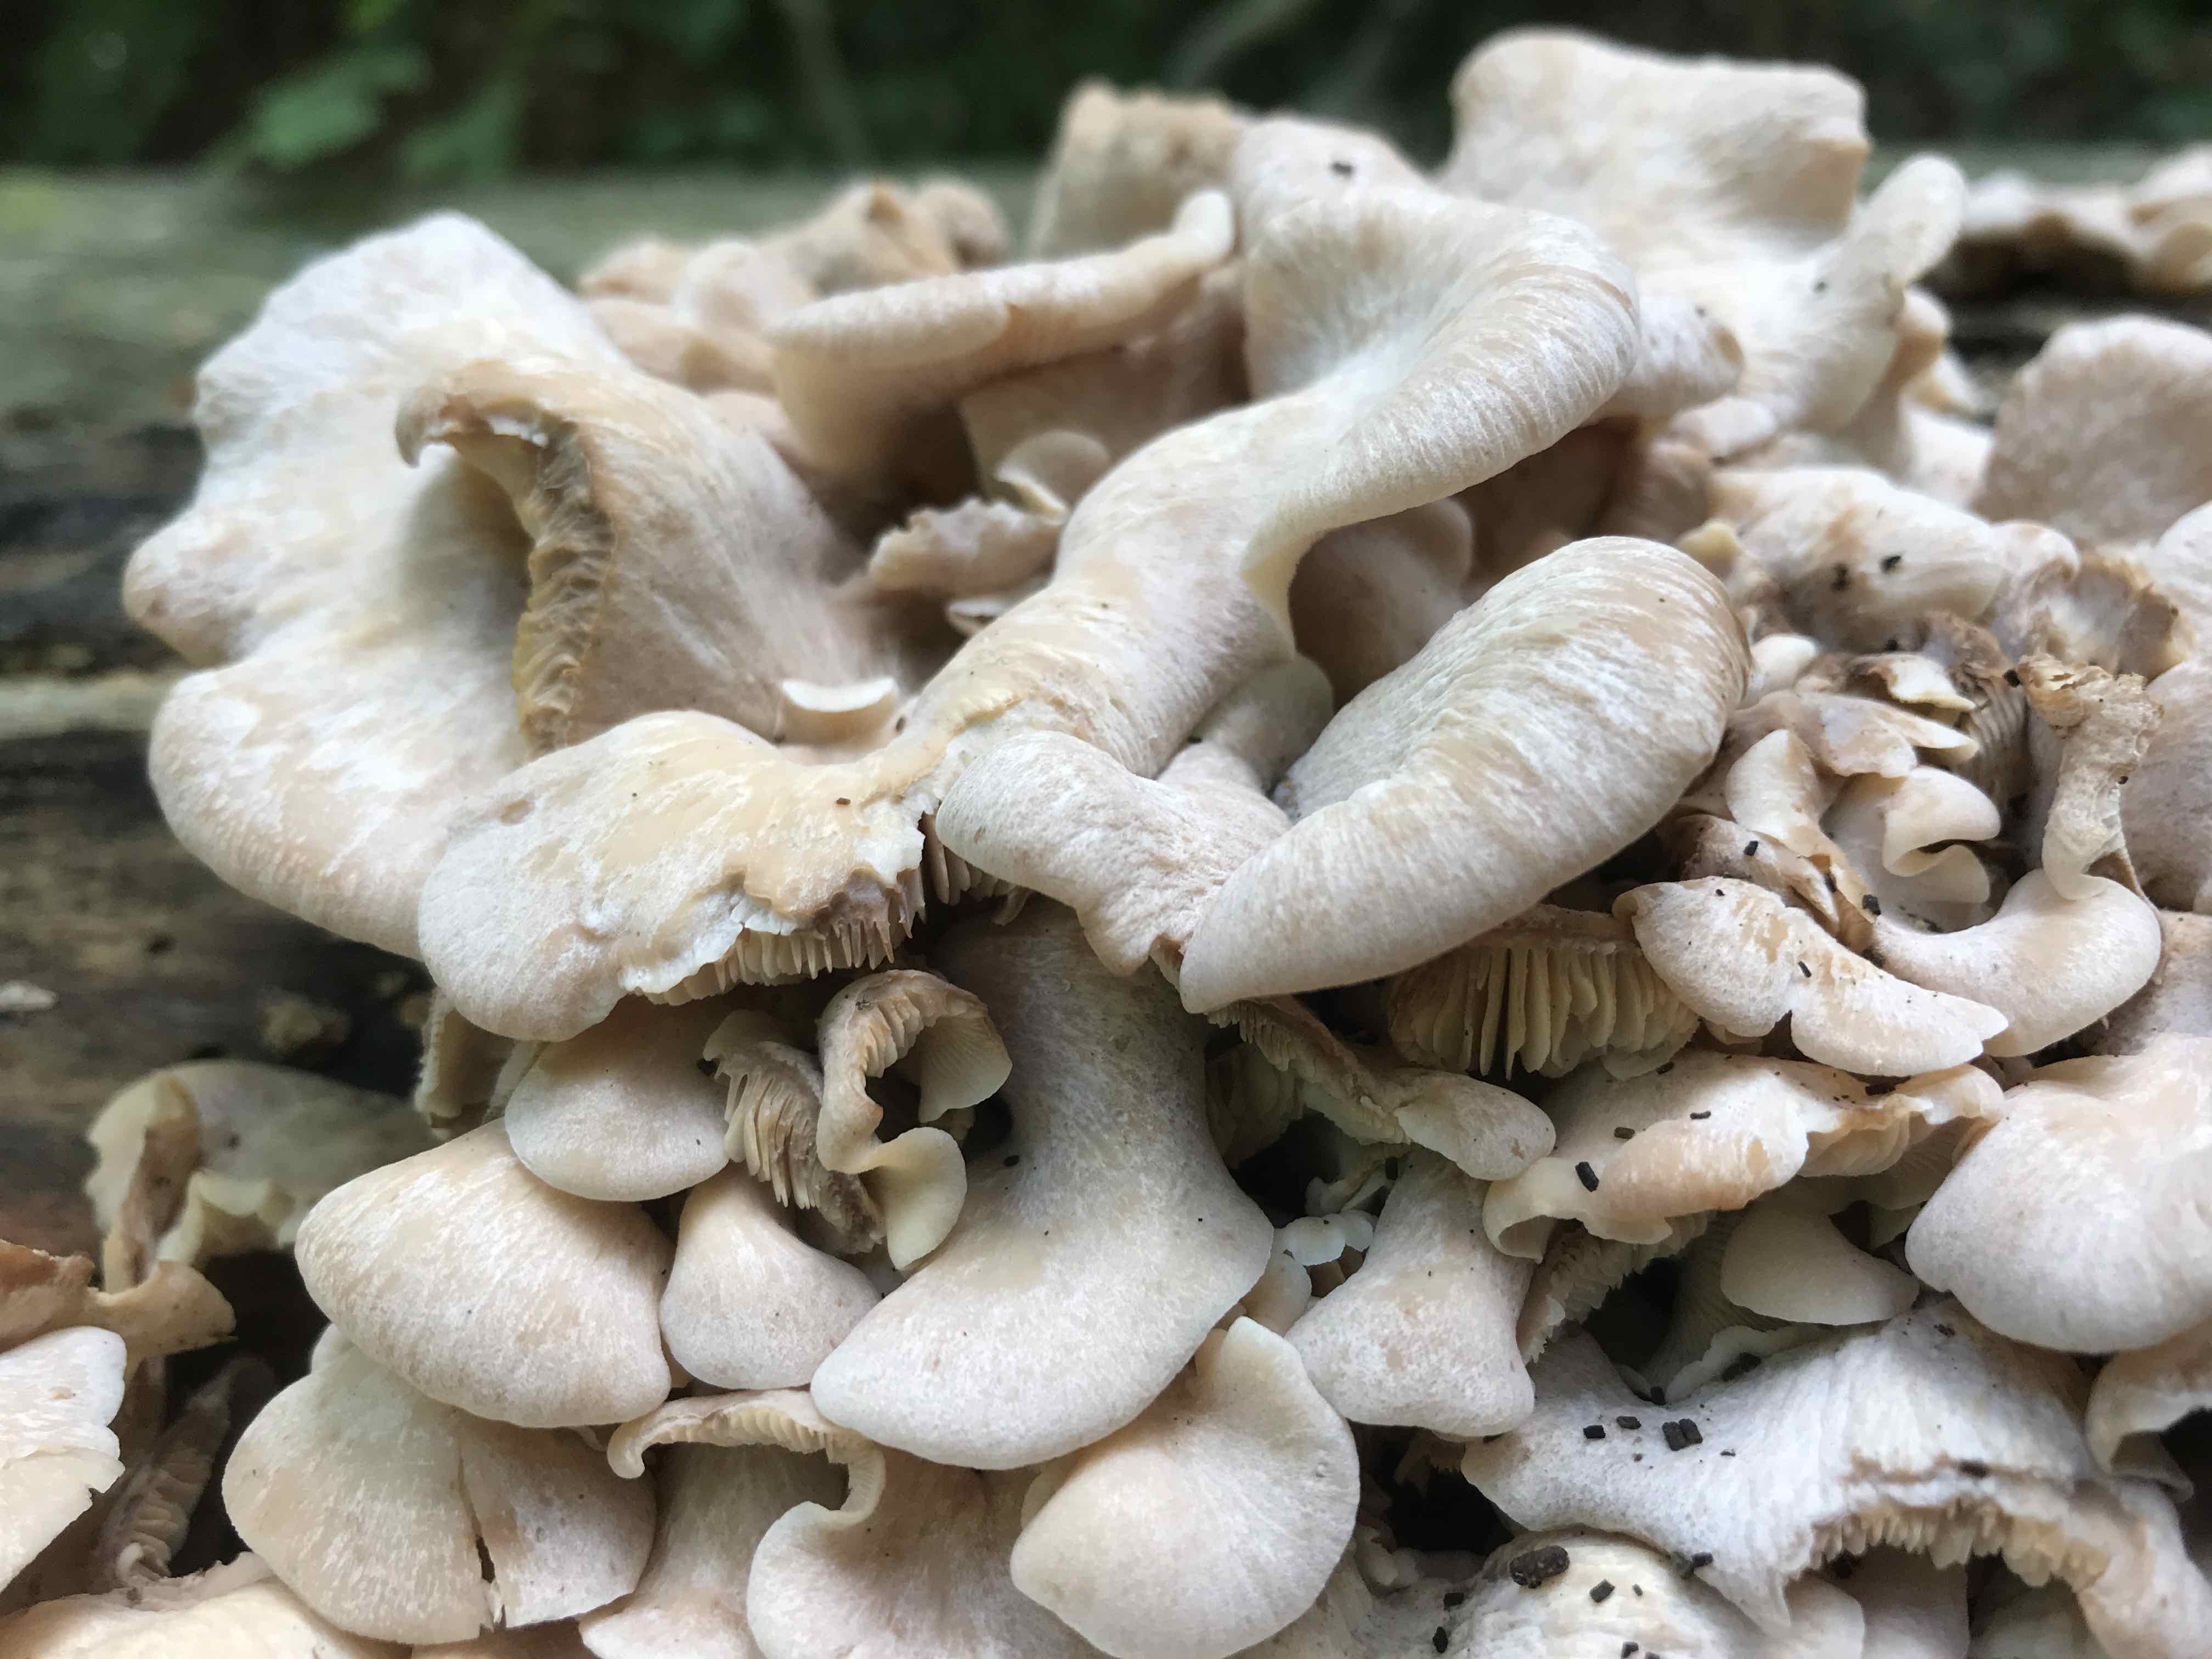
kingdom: Fungi
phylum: Basidiomycota
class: Agaricomycetes
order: Russulales
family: Auriscalpiaceae
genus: Lentinellus
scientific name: Lentinellus ursinus
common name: børstehåret savbladhat
